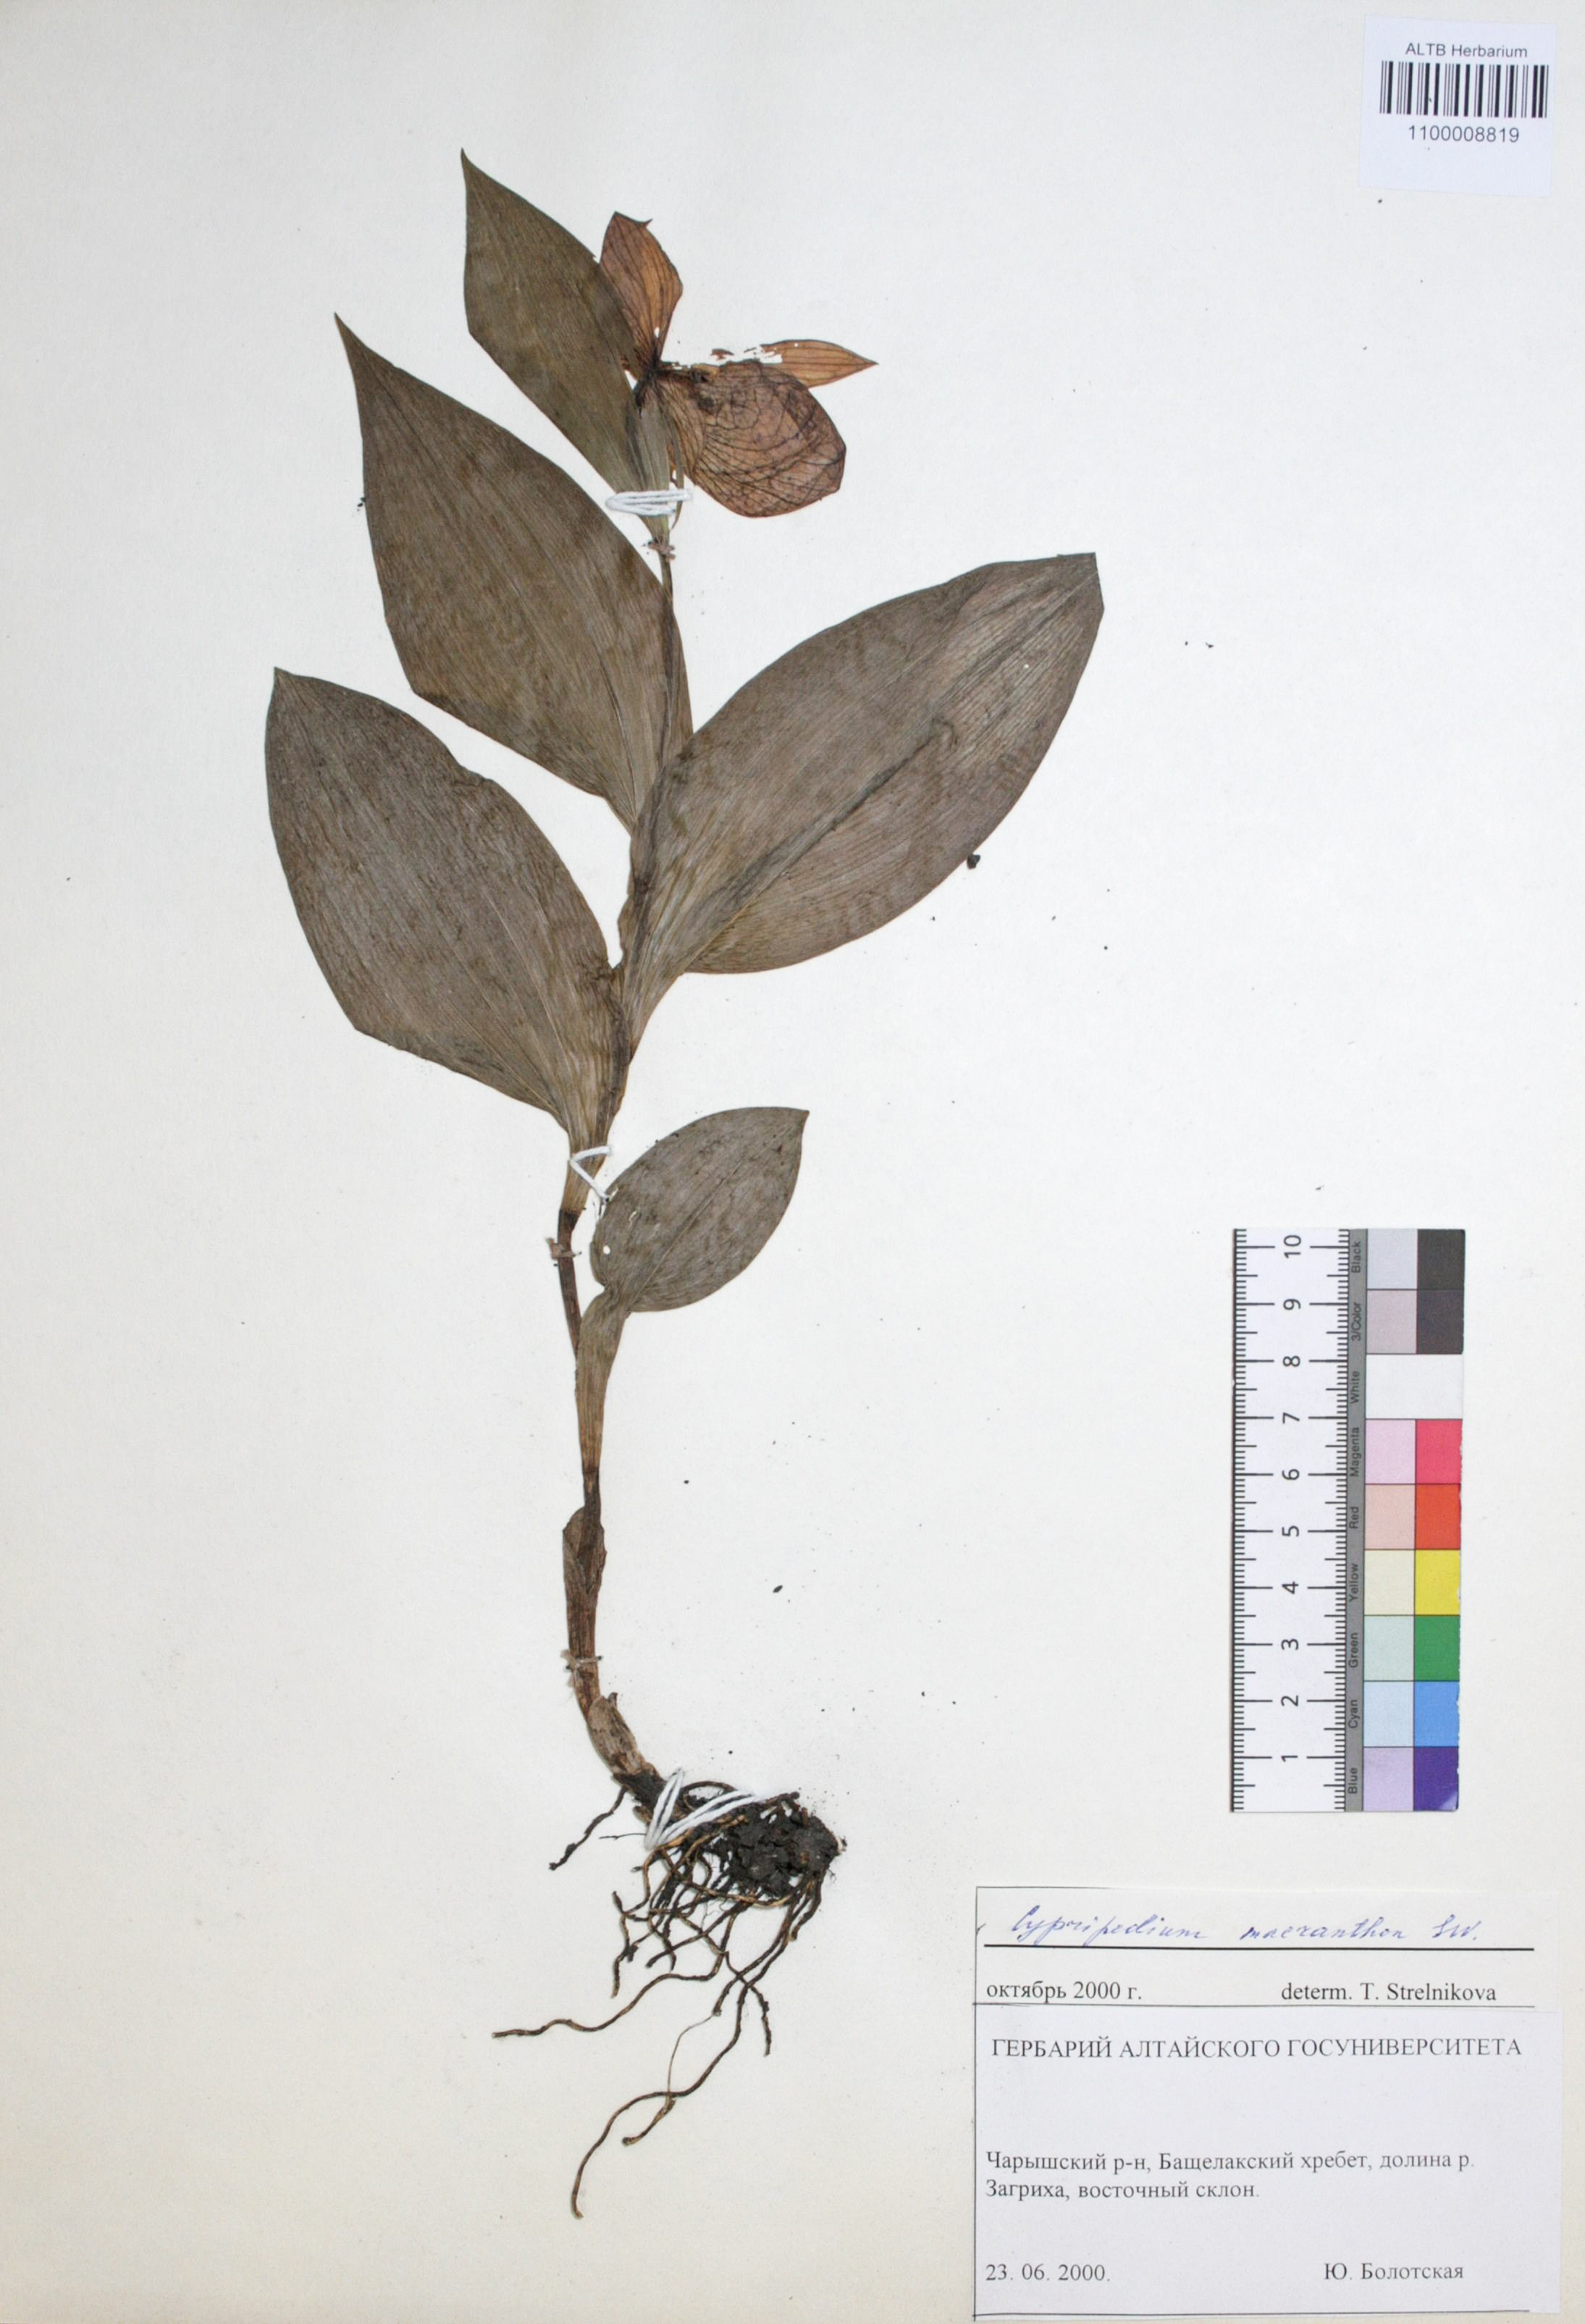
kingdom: Plantae
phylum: Tracheophyta
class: Liliopsida
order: Asparagales
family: Orchidaceae
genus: Cypripedium
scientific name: Cypripedium macranthon
